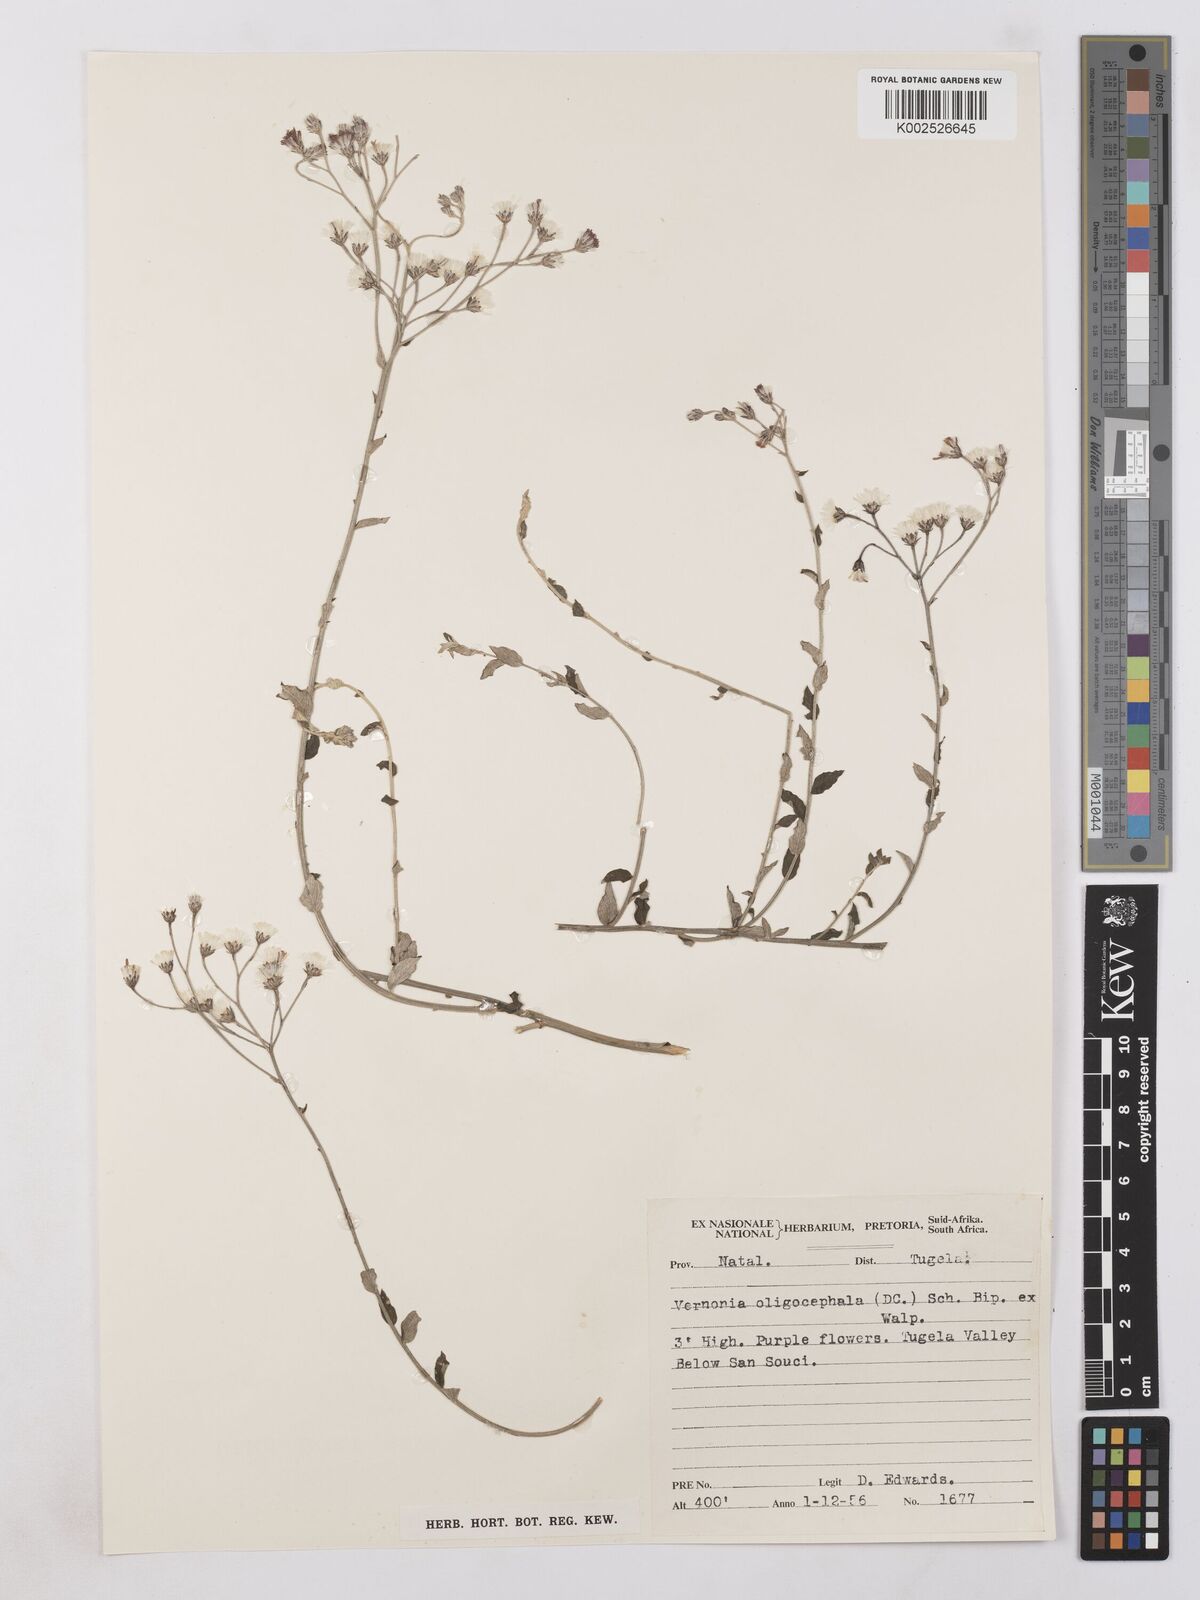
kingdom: Plantae
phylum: Tracheophyta
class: Magnoliopsida
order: Asterales
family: Asteraceae
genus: Hilliardiella
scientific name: Hilliardiella oligocephala
